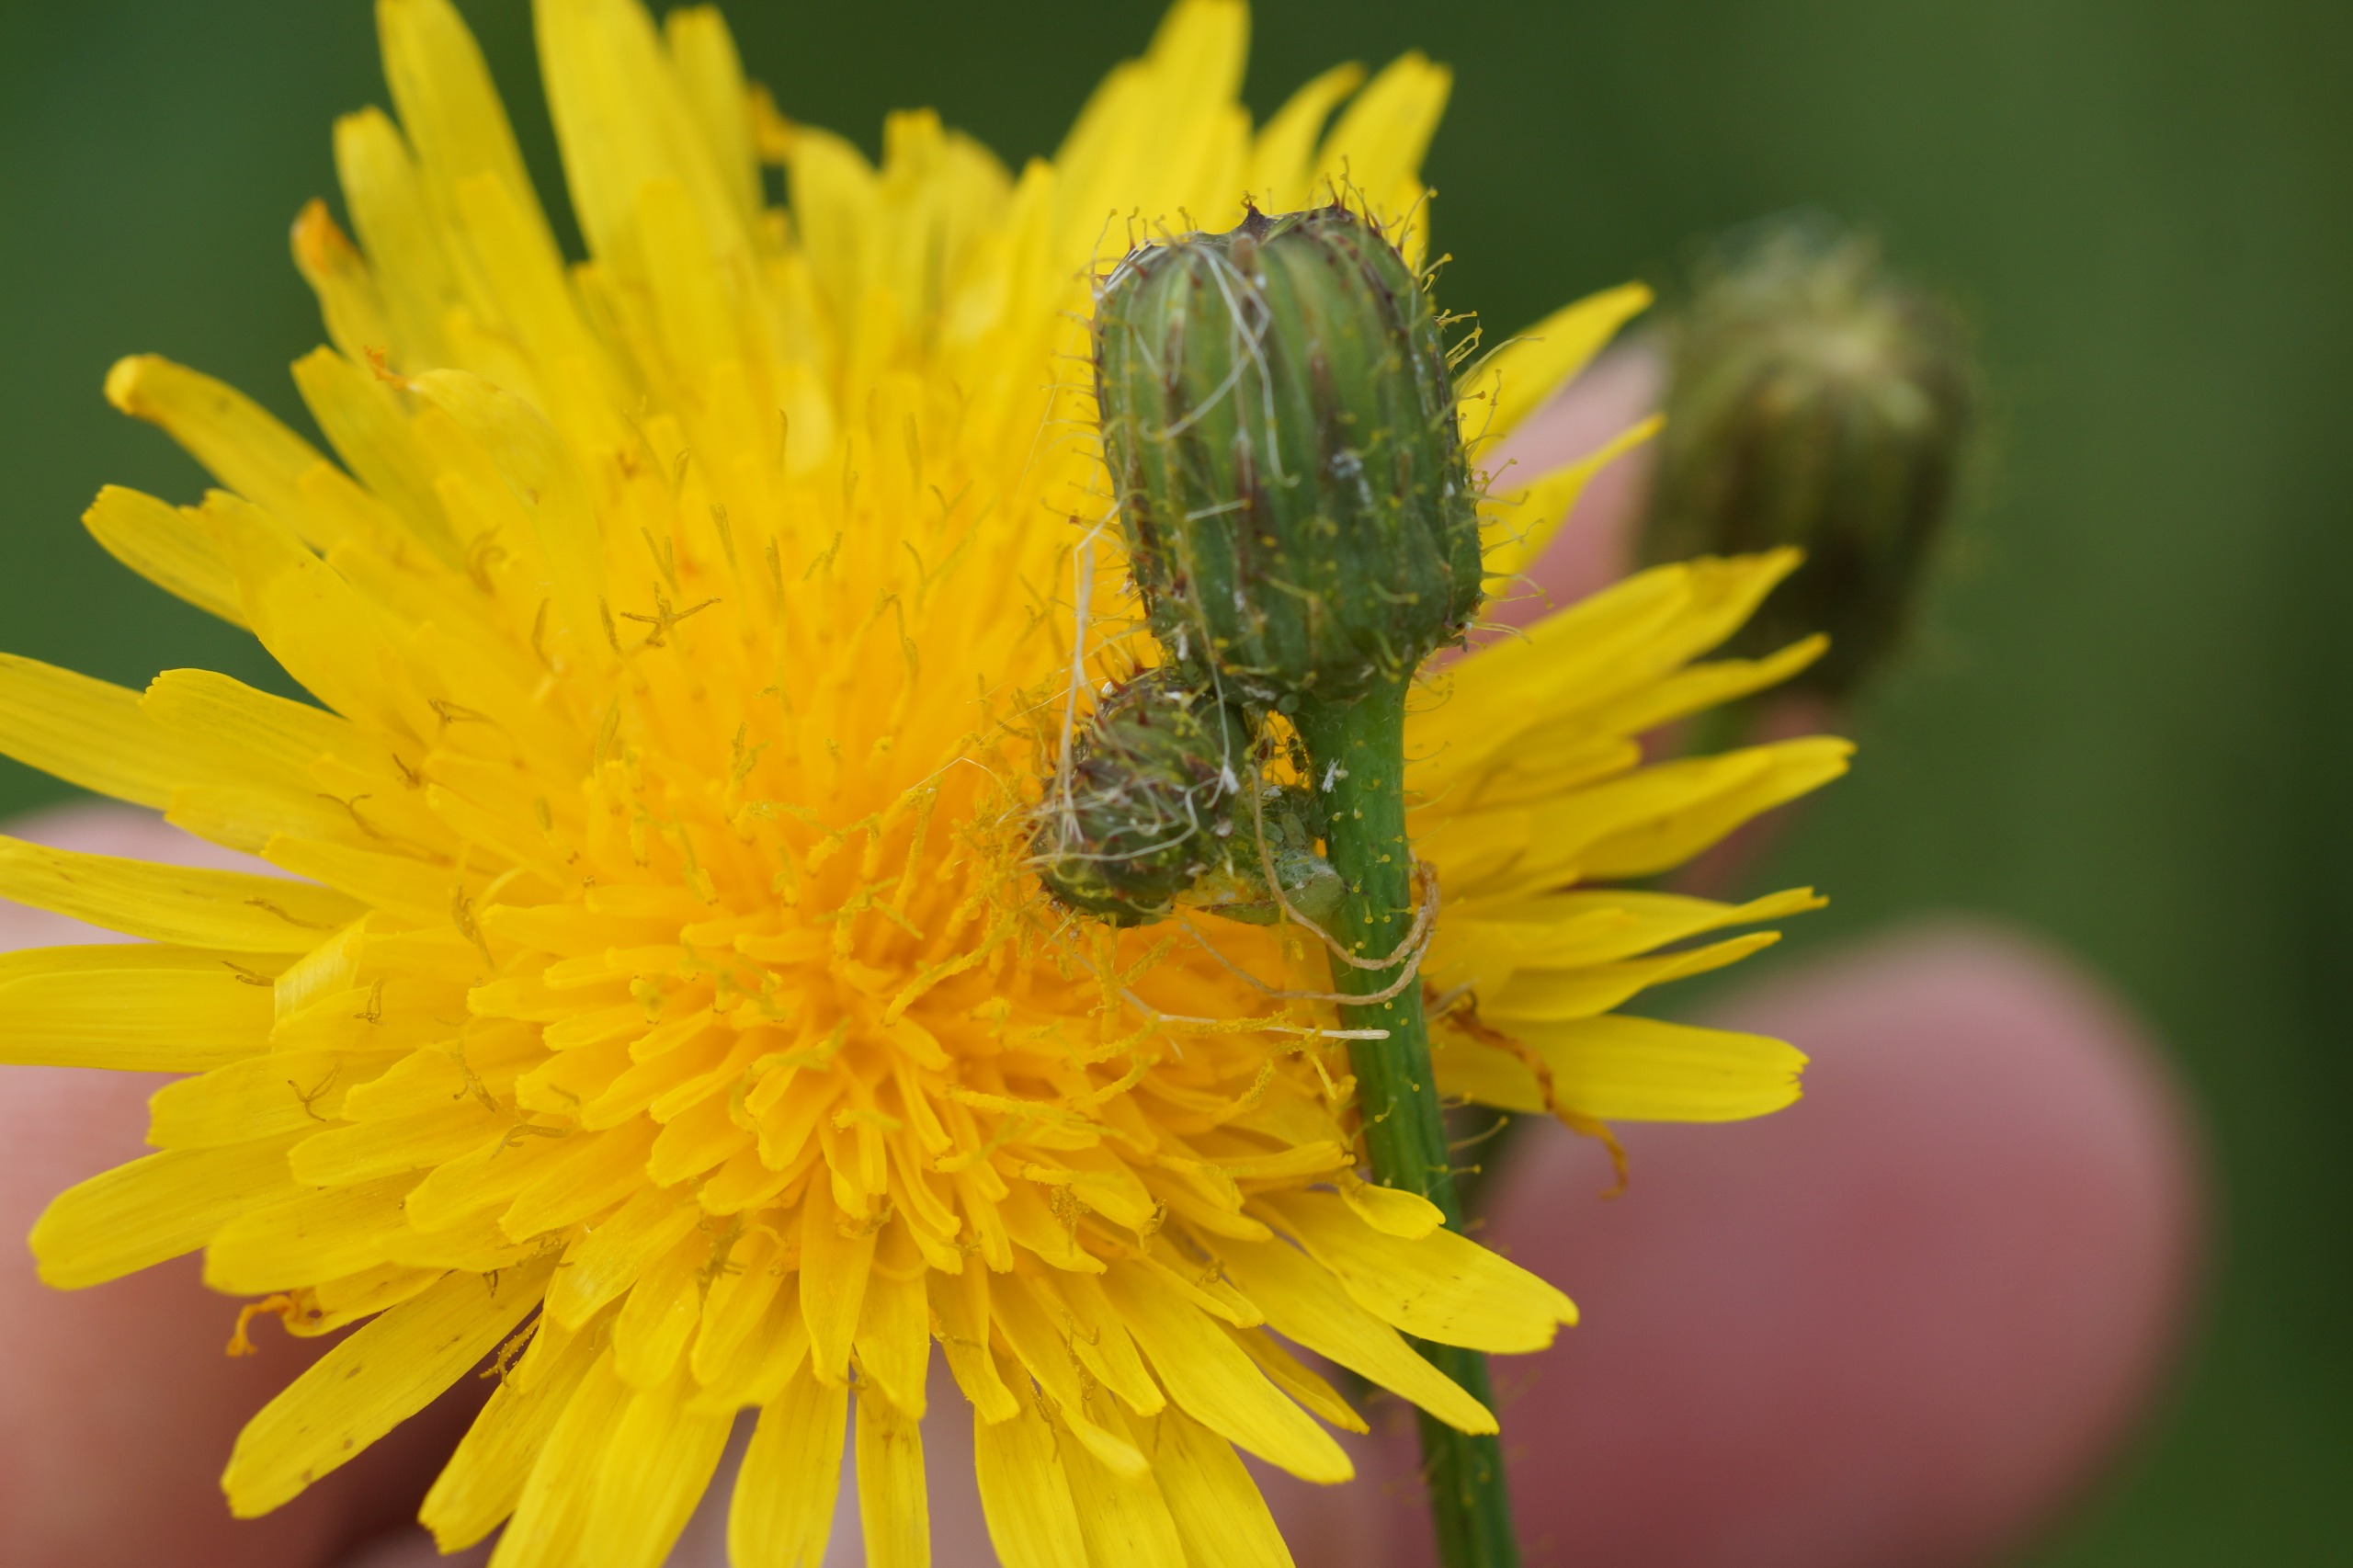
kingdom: Plantae
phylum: Tracheophyta
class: Magnoliopsida
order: Asterales
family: Asteraceae
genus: Sonchus
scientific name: Sonchus arvensis
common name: Ager-svinemælk
